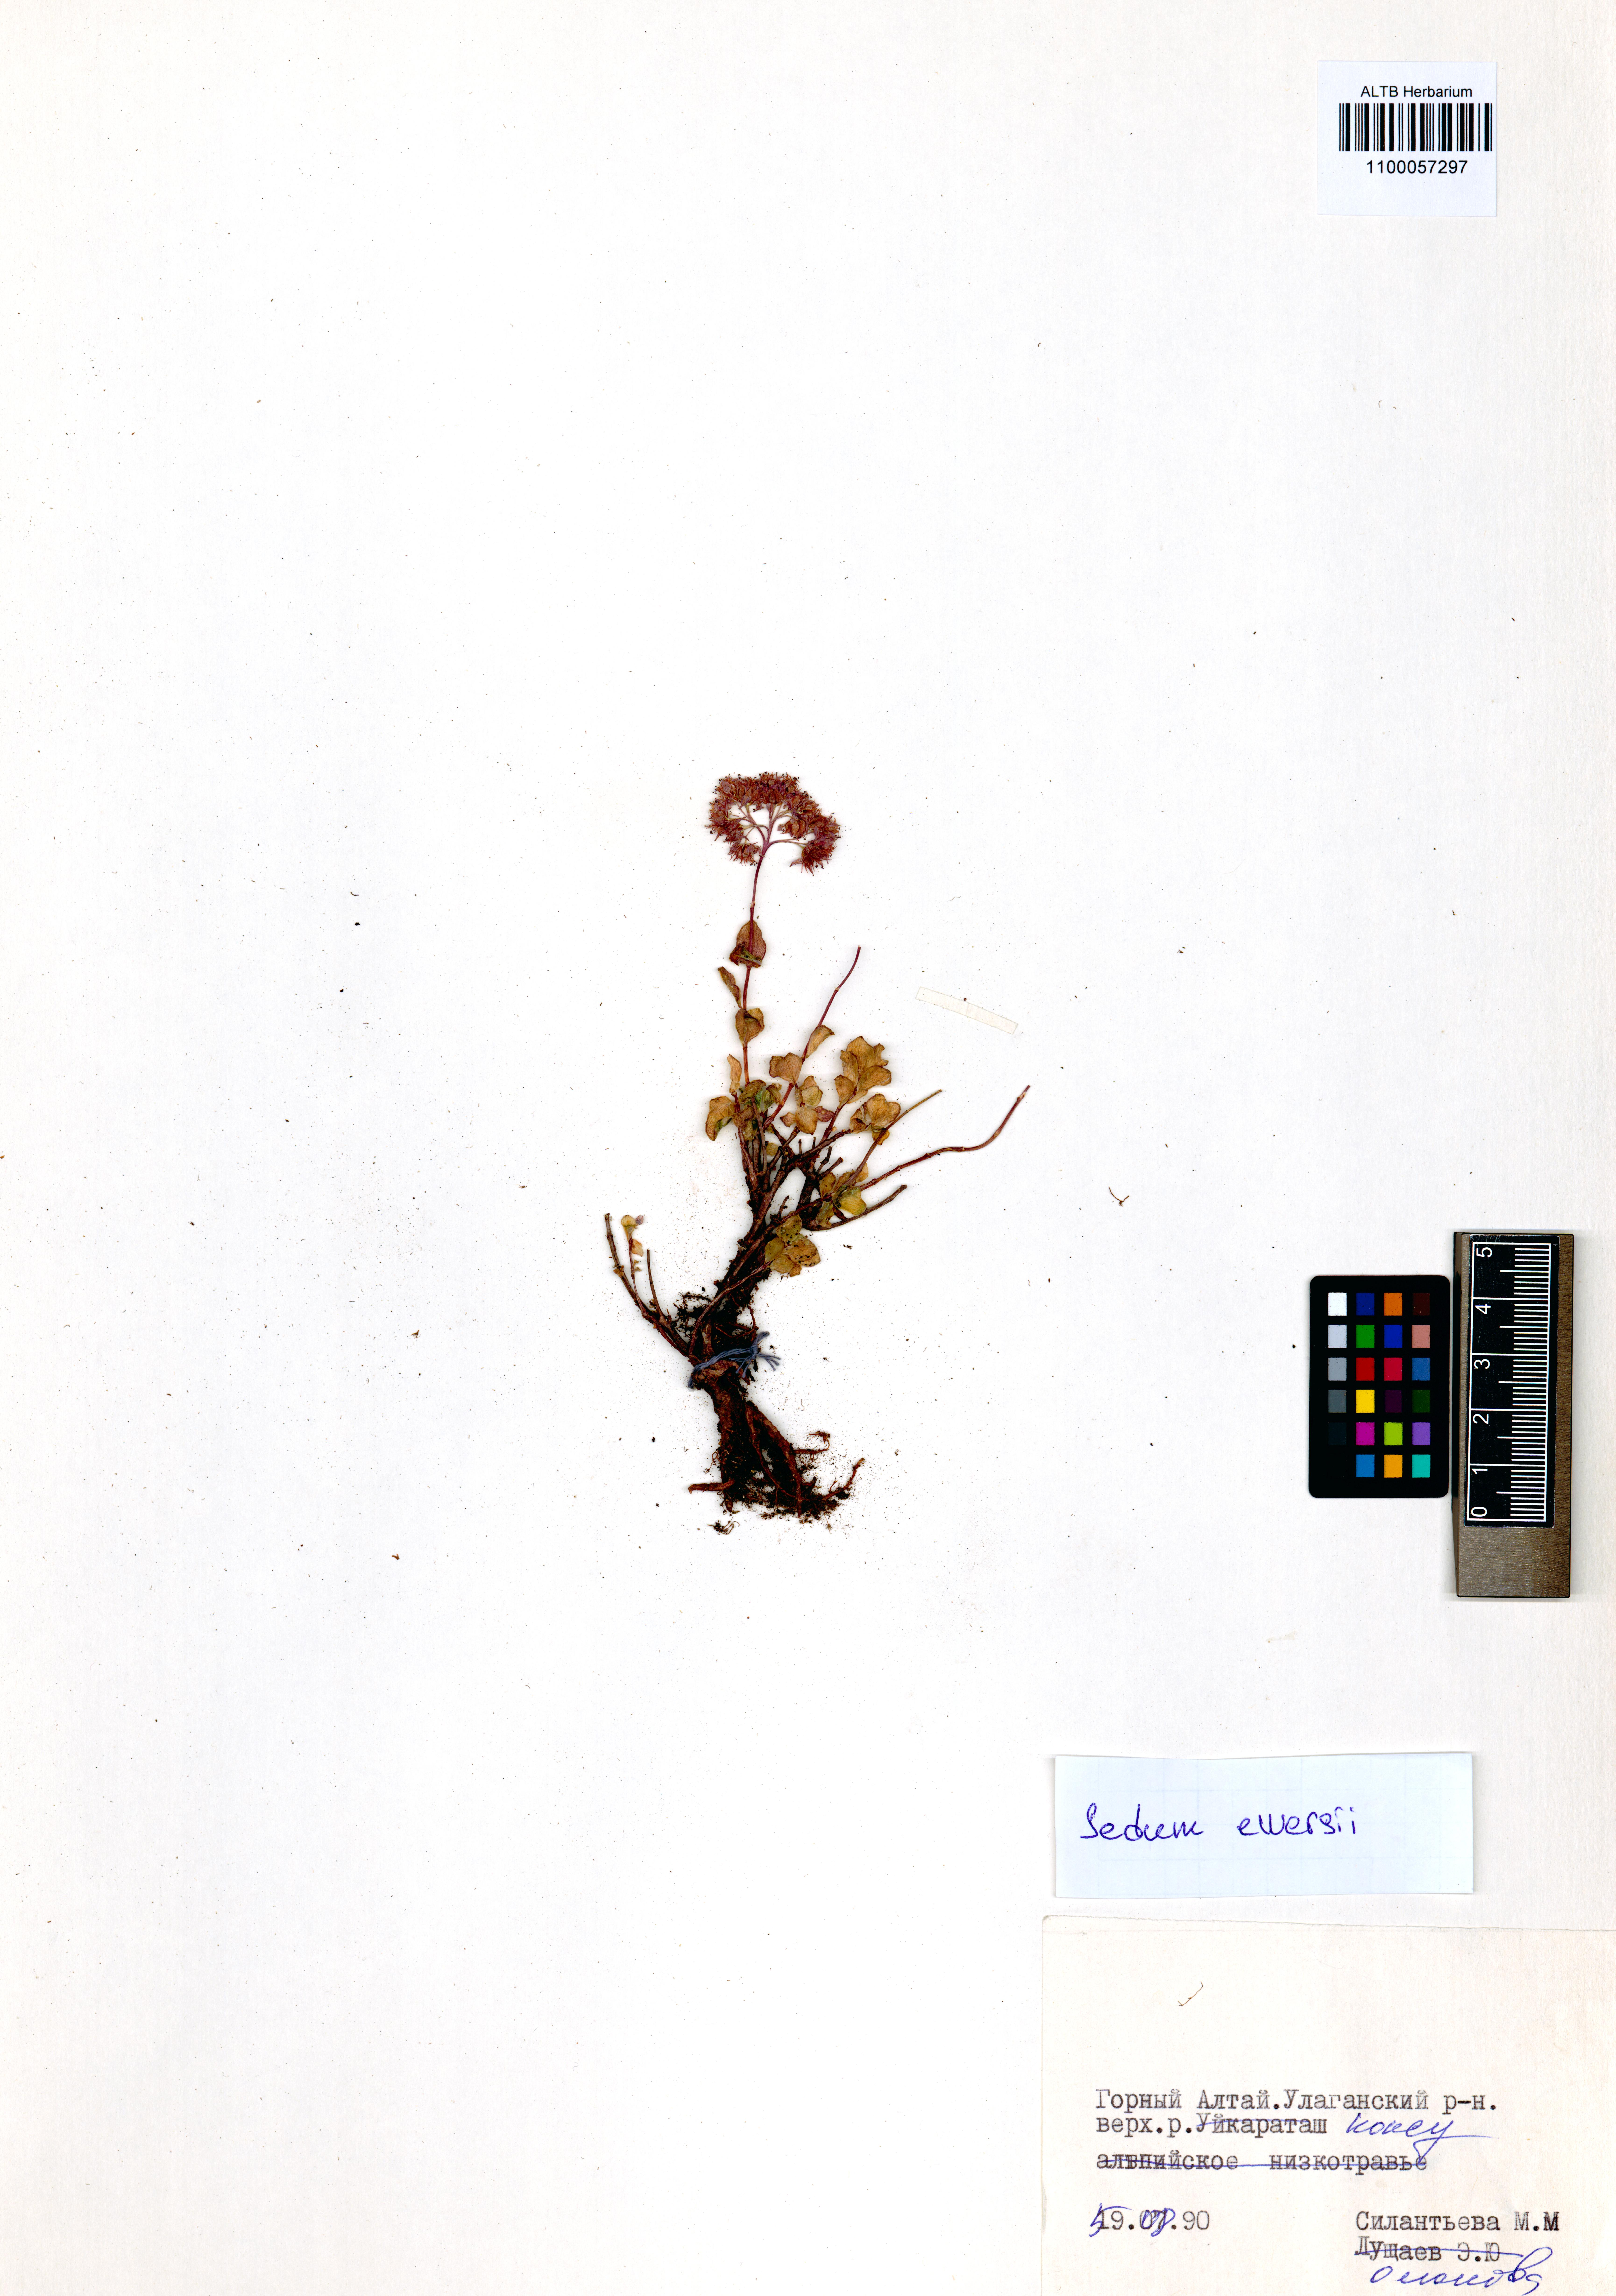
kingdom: Plantae
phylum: Tracheophyta
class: Magnoliopsida
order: Saxifragales
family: Crassulaceae
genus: Hylotelephium
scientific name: Hylotelephium ewersii
